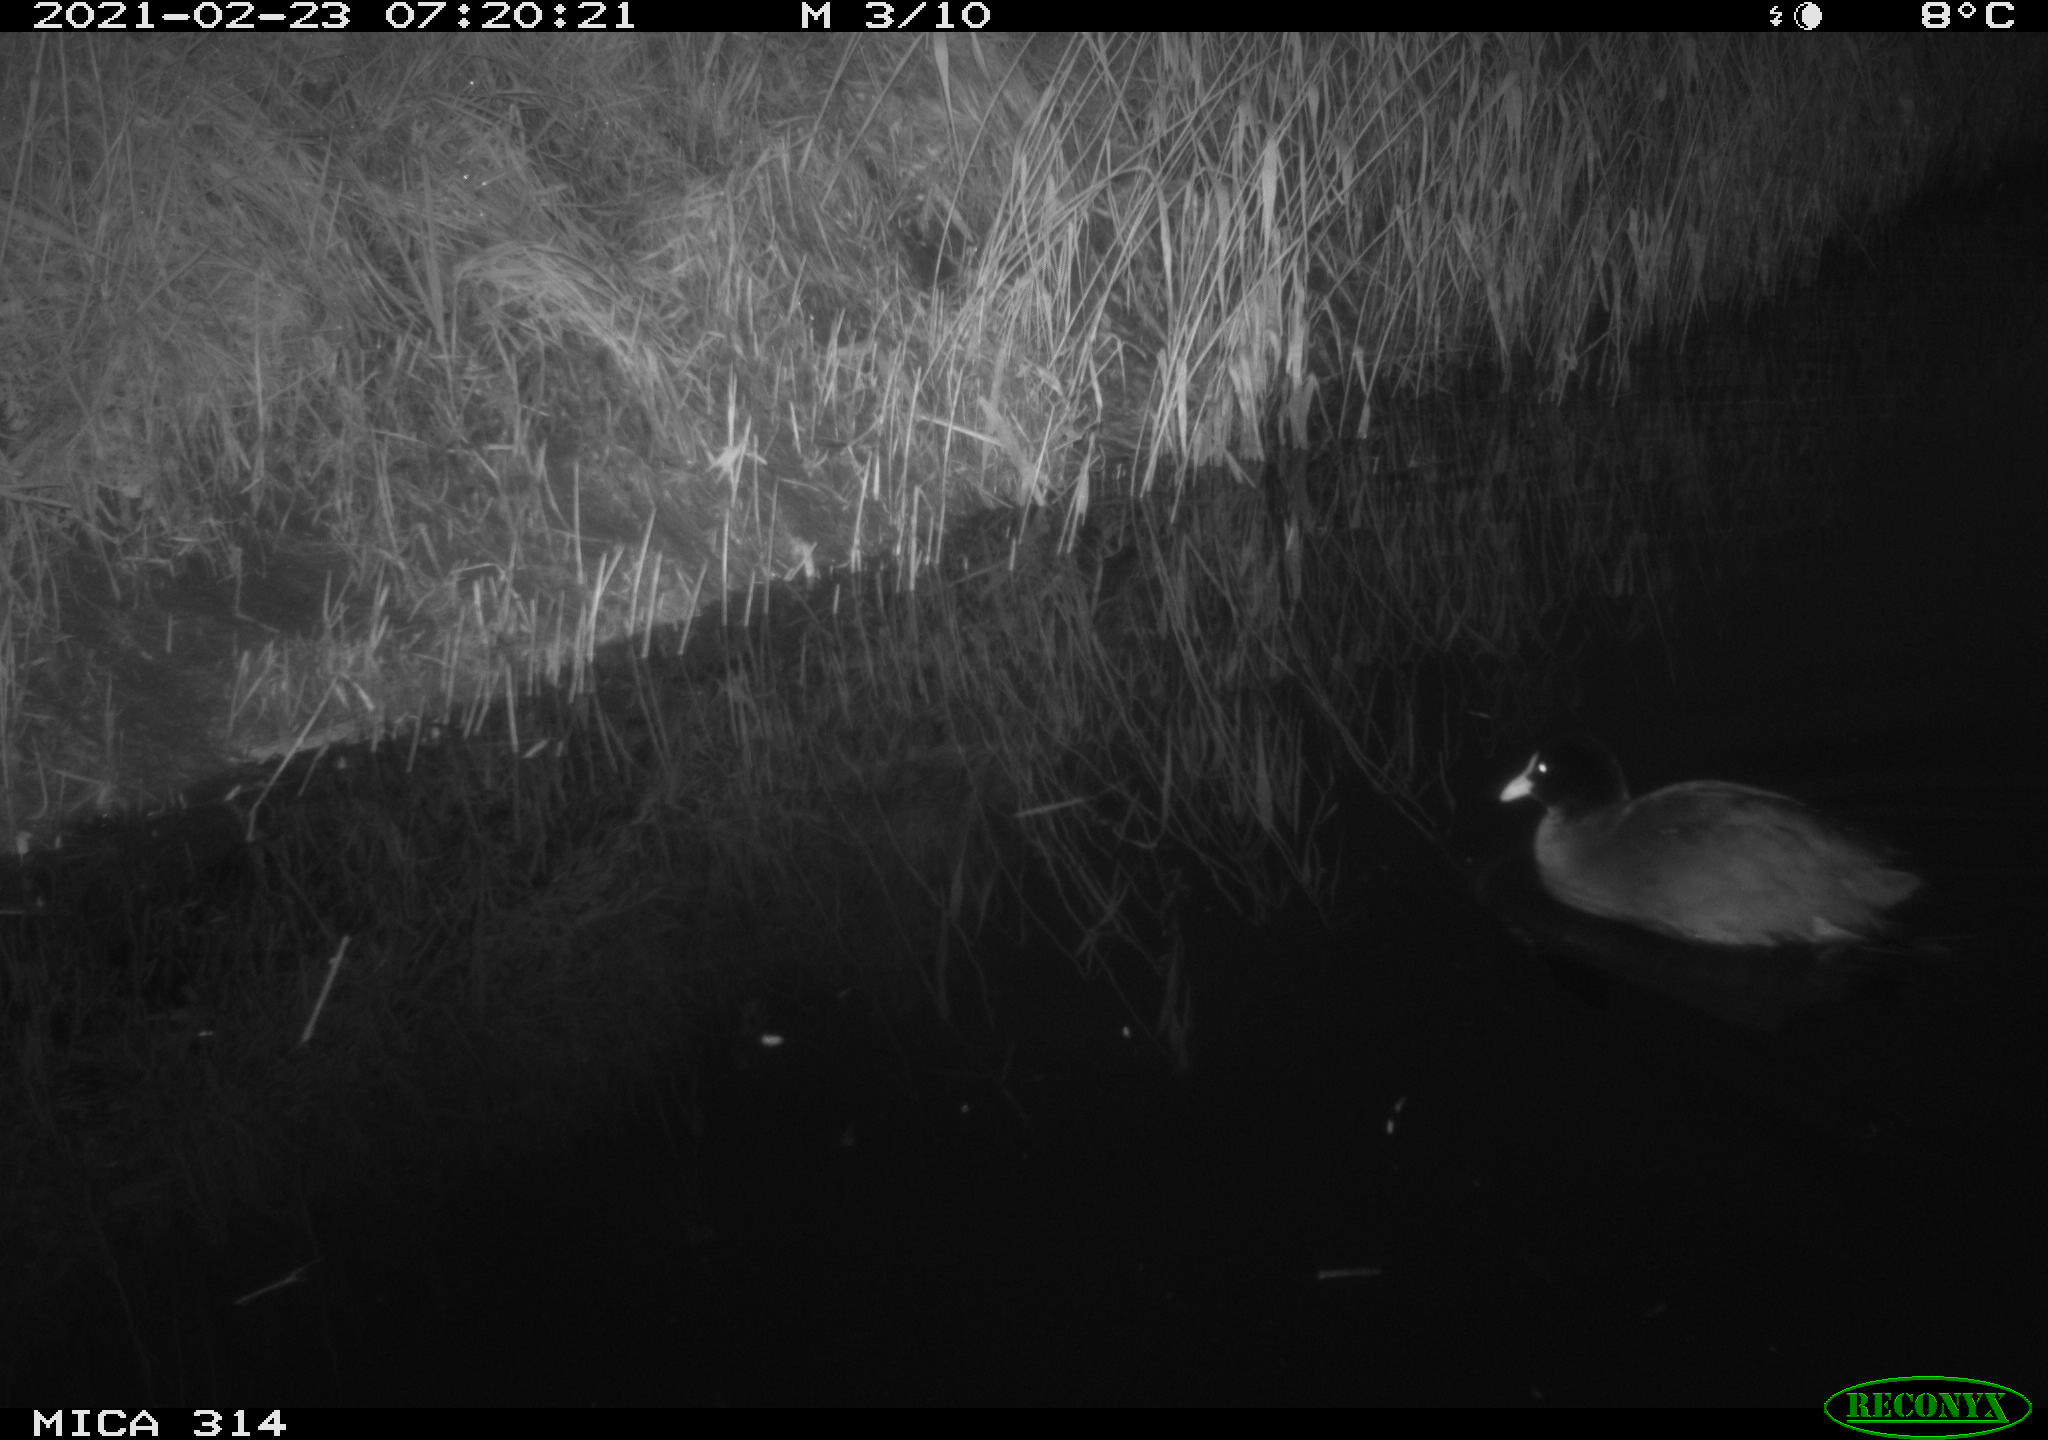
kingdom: Animalia
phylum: Chordata
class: Aves
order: Gruiformes
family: Rallidae
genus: Gallinula
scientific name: Gallinula chloropus
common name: Common moorhen
